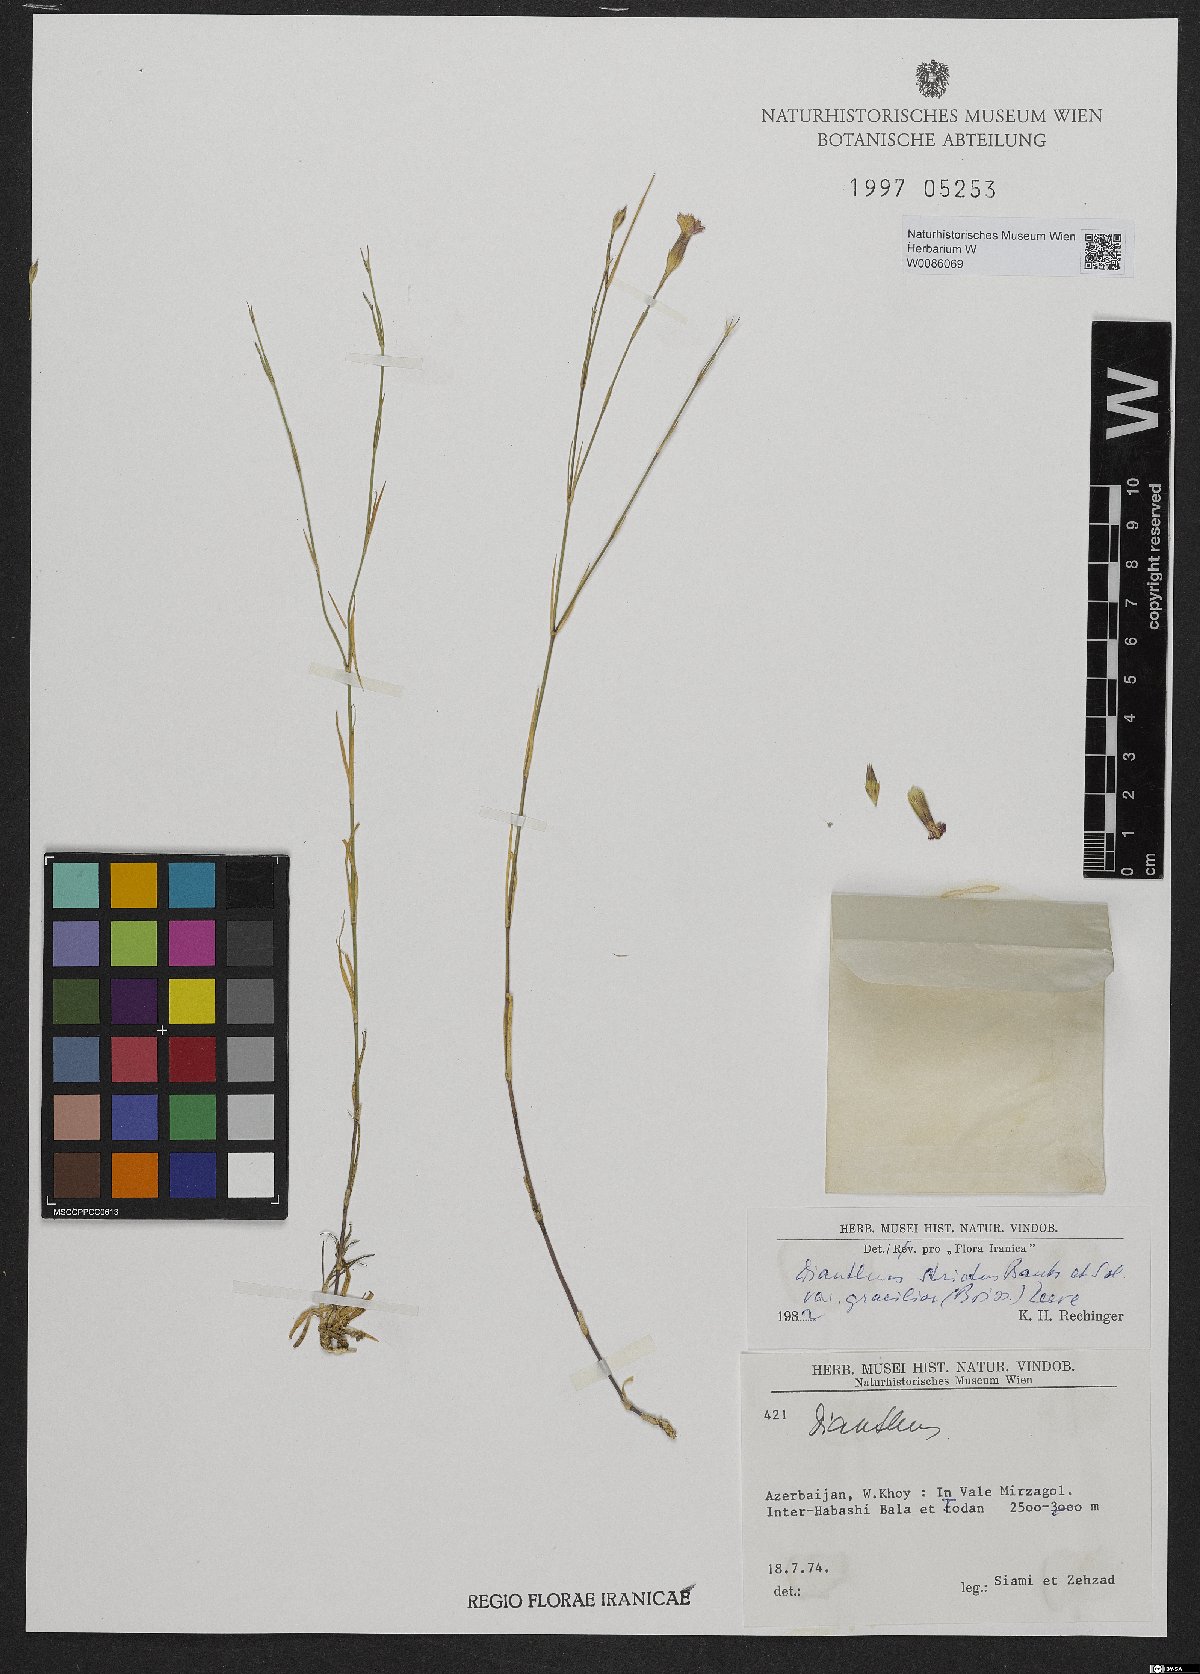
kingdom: Plantae
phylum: Tracheophyta
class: Magnoliopsida
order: Caryophyllales
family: Caryophyllaceae
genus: Dianthus
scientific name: Dianthus strictus
